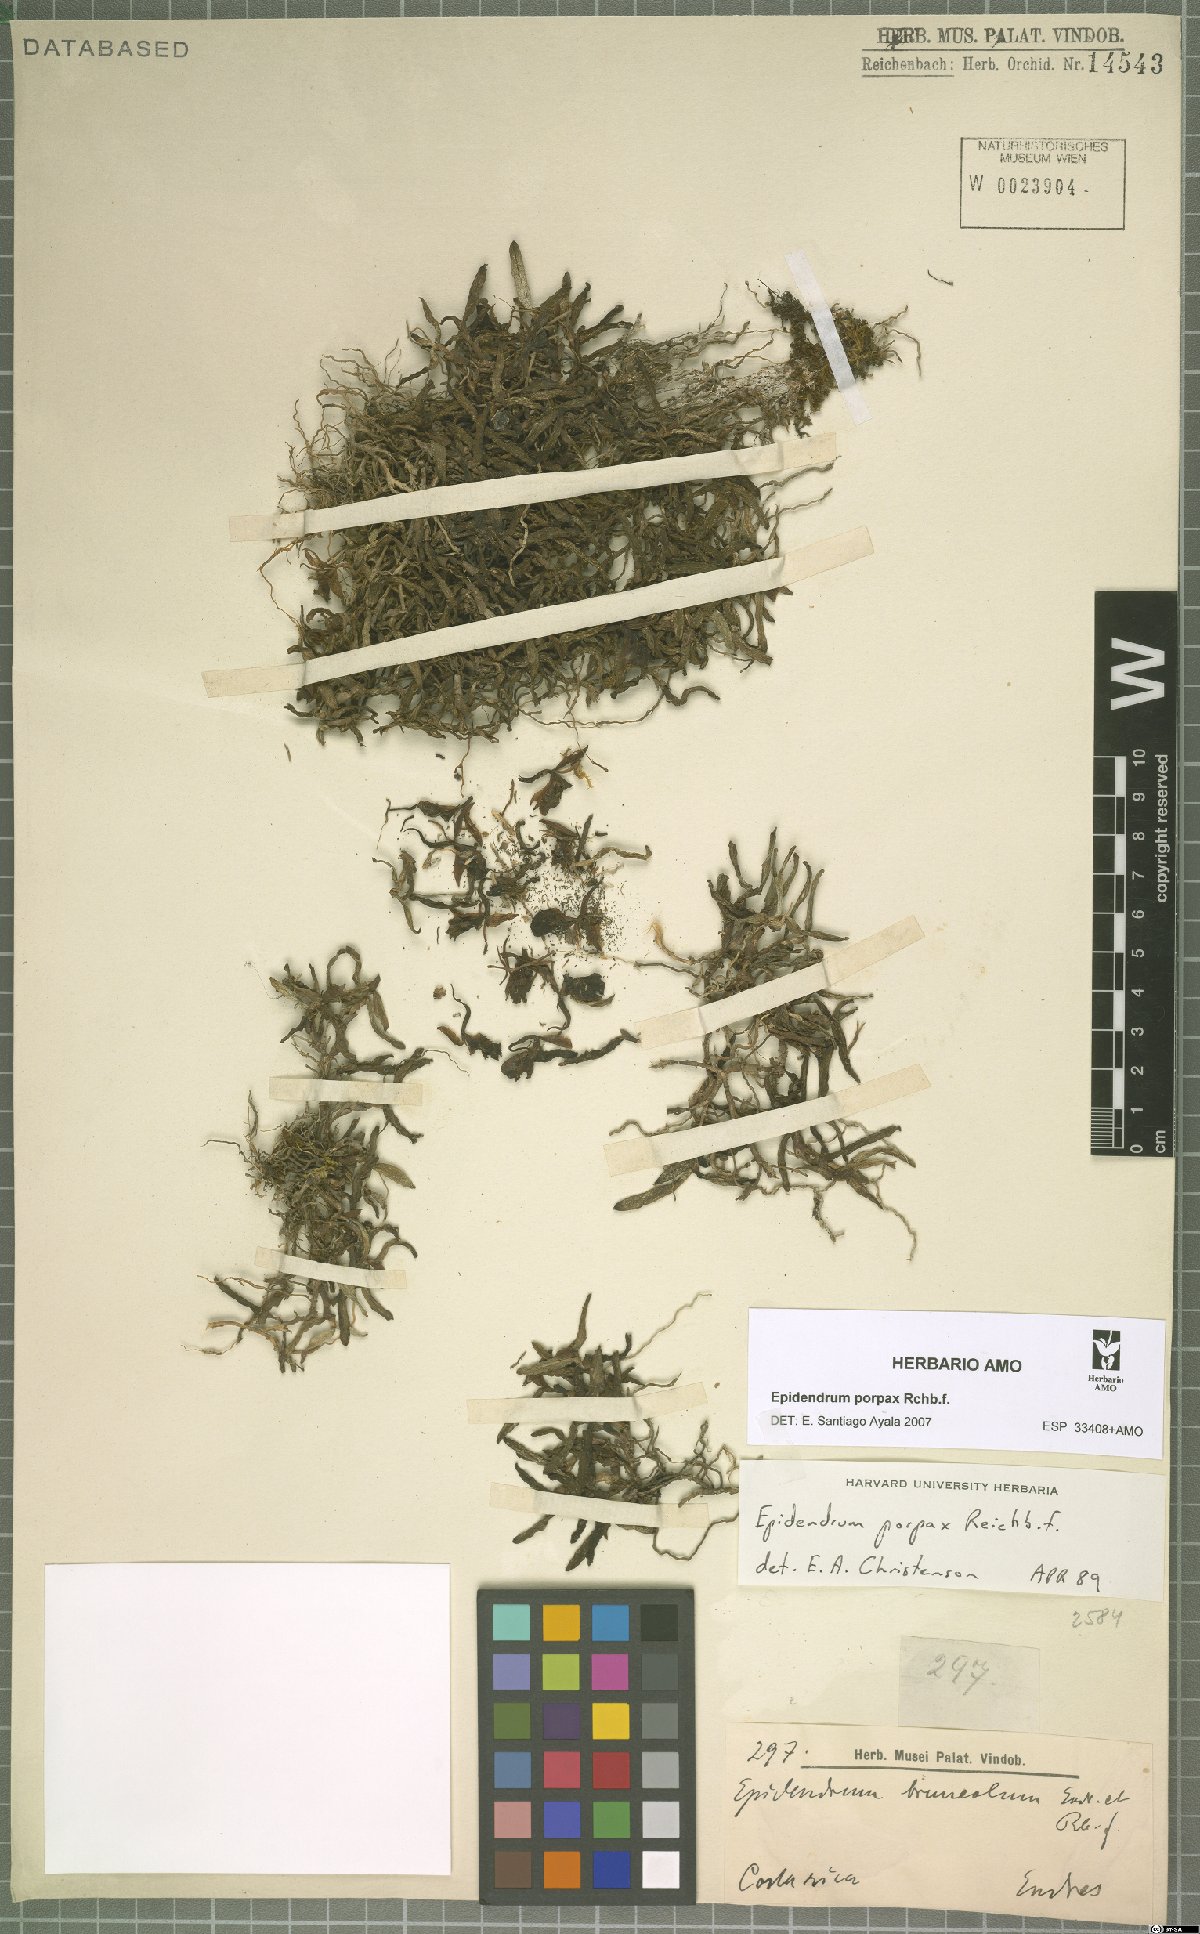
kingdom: Plantae
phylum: Tracheophyta
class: Liliopsida
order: Asparagales
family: Orchidaceae
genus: Epidendrum
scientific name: Epidendrum porpax
